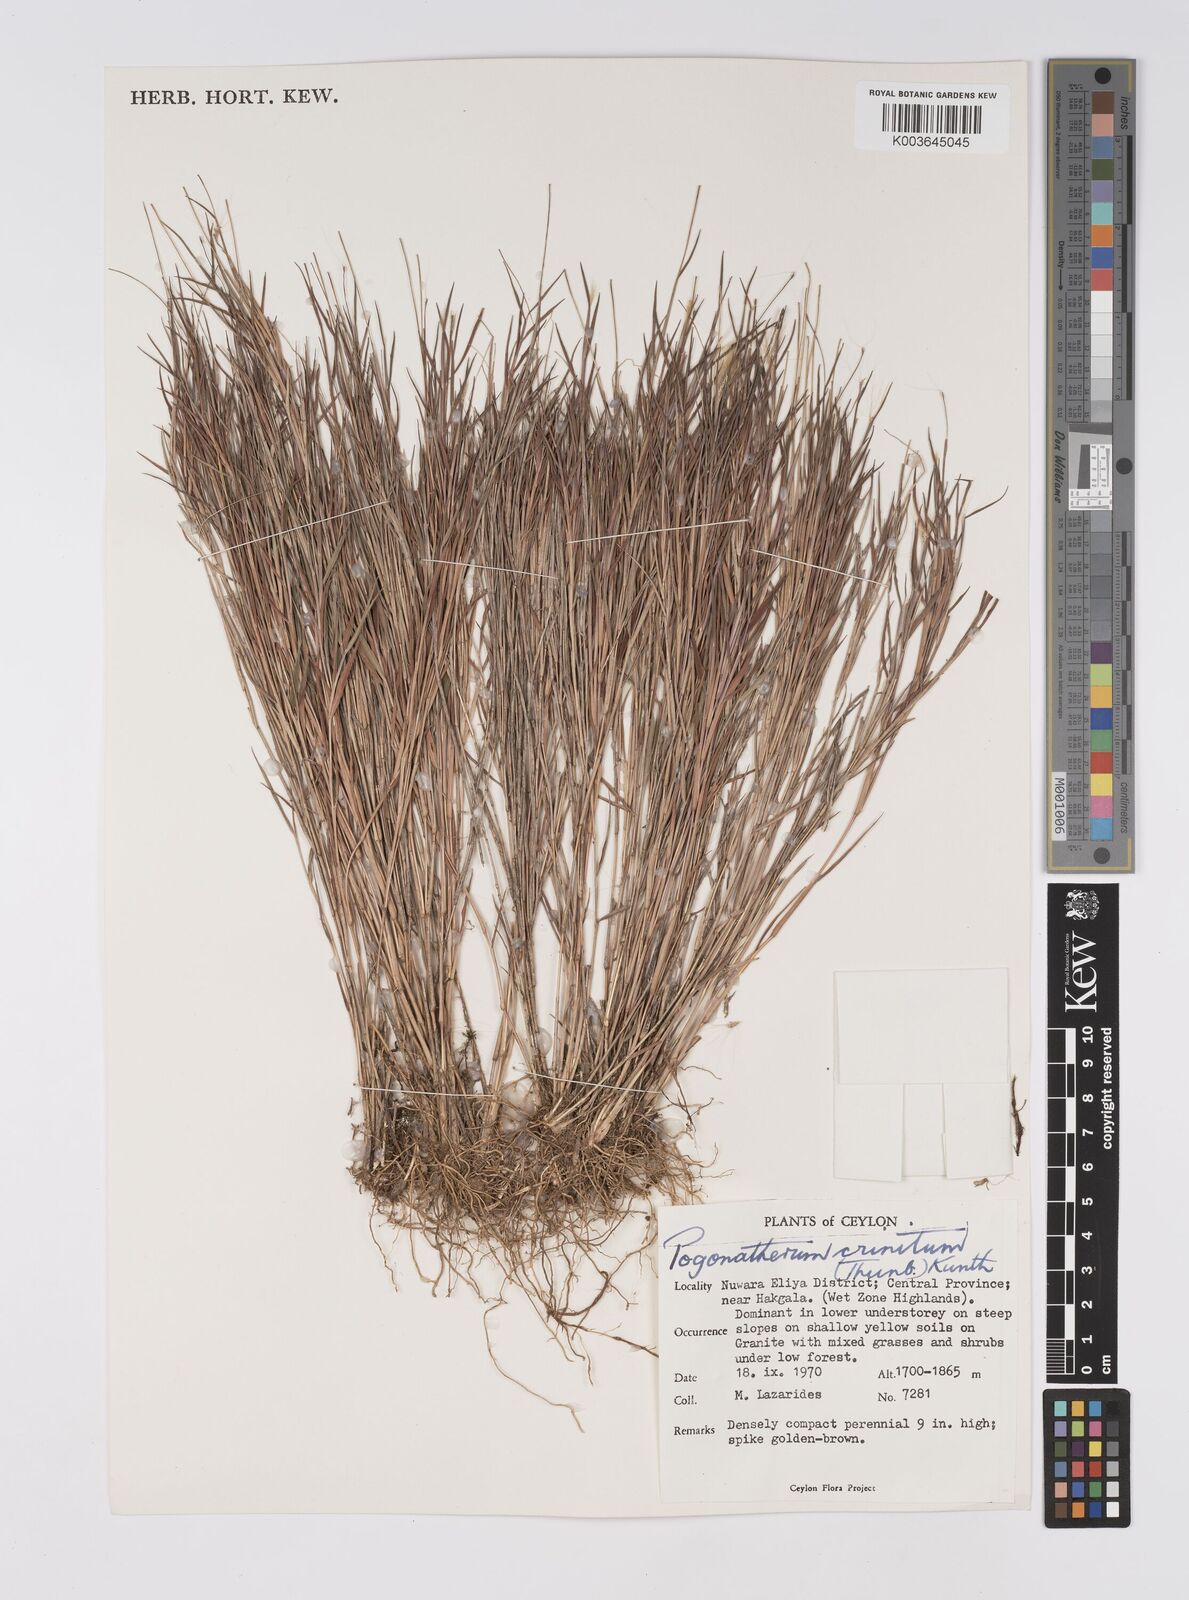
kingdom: Plantae
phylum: Tracheophyta
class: Liliopsida
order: Poales
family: Poaceae
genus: Pogonatherum
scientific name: Pogonatherum crinitum
